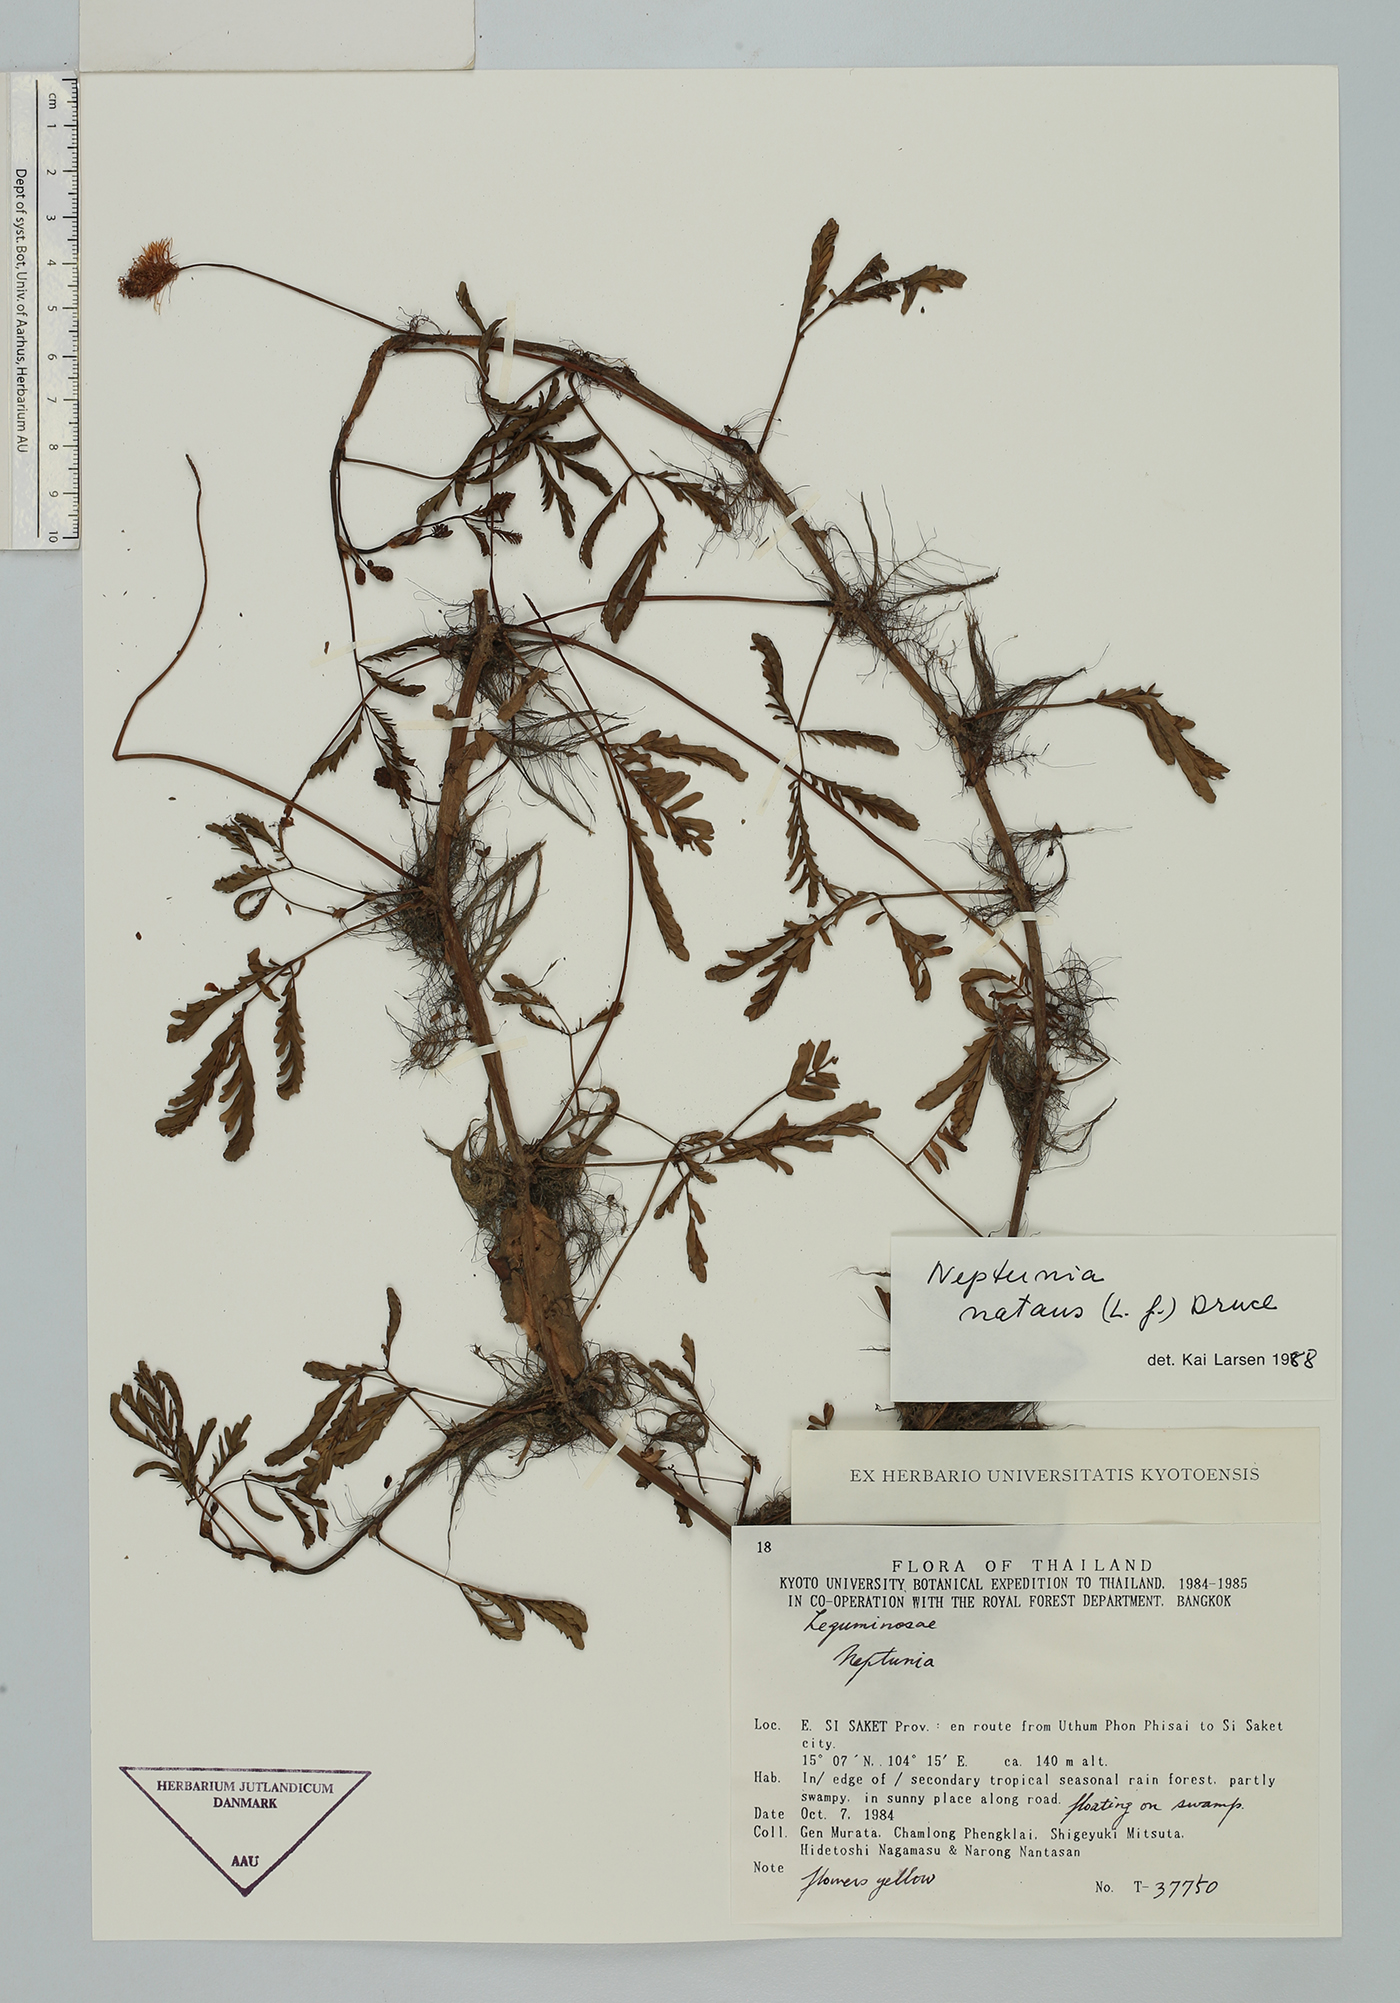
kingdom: Plantae
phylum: Tracheophyta
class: Magnoliopsida
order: Fabales
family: Fabaceae
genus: Neptunia
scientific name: Neptunia prostrata
